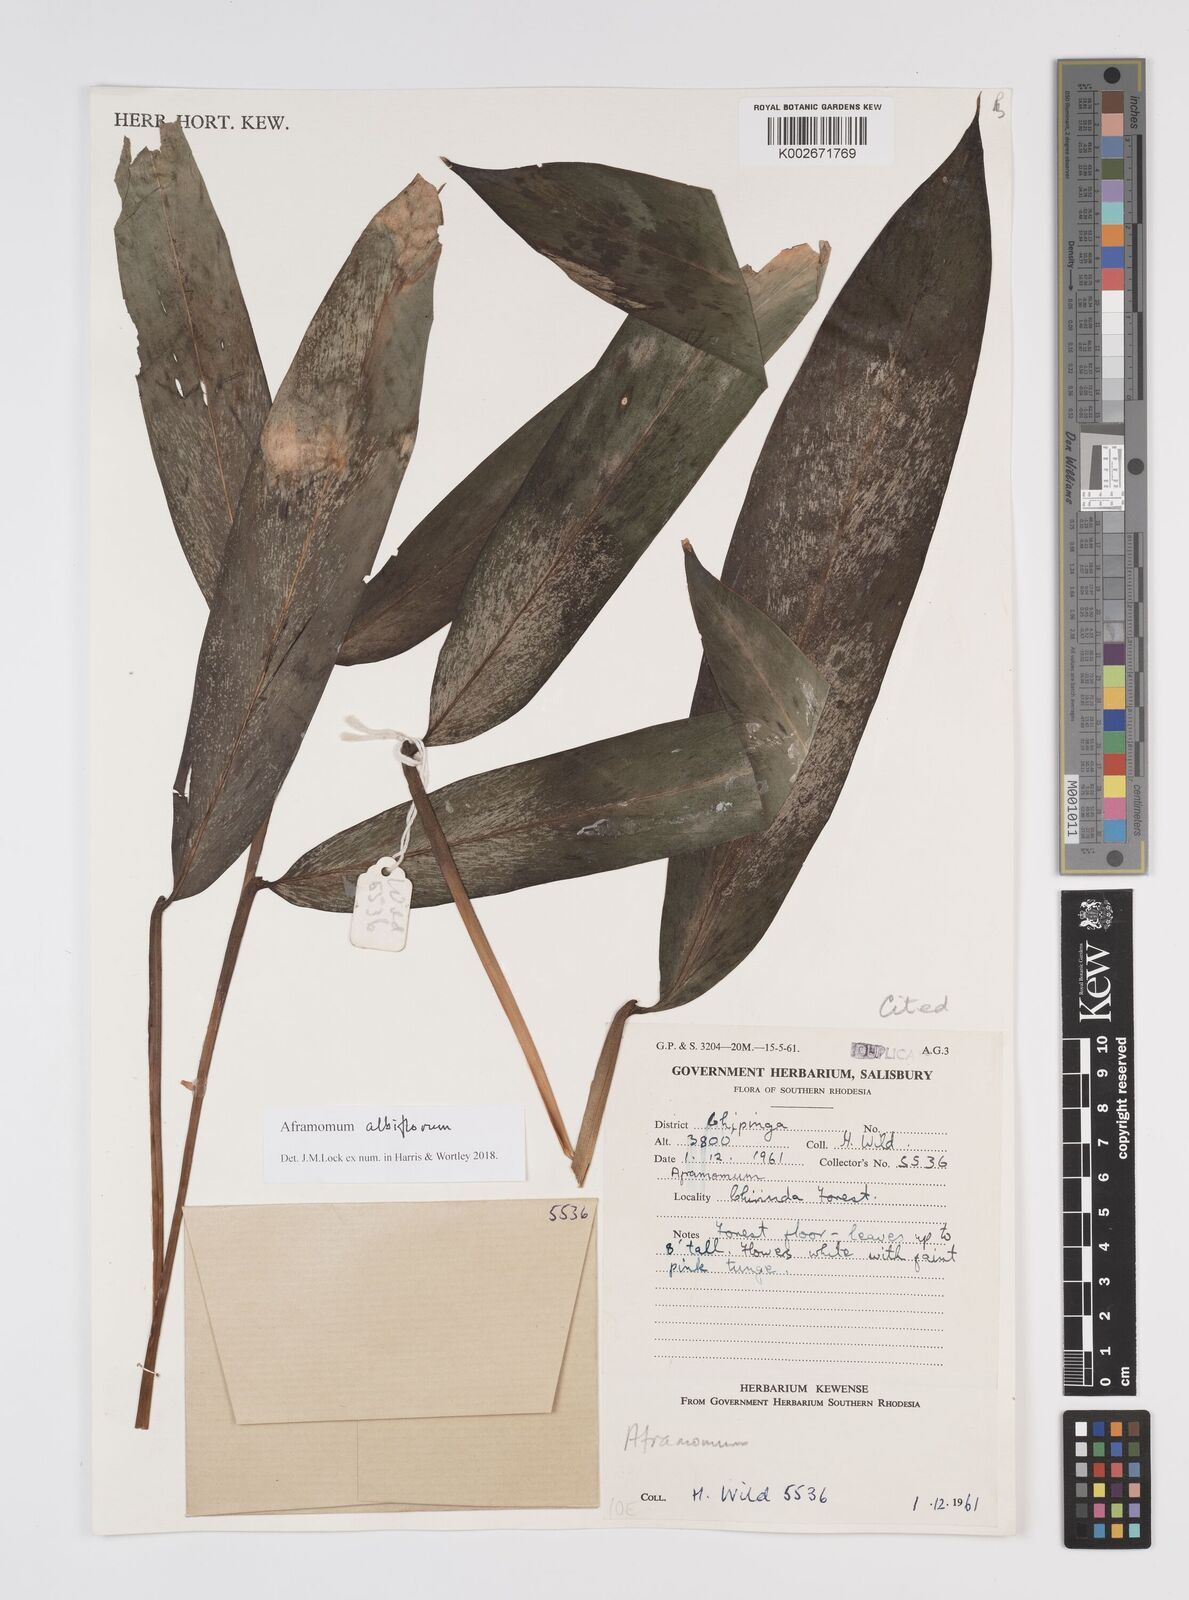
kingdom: Plantae
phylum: Tracheophyta
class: Liliopsida
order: Zingiberales
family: Zingiberaceae
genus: Aframomum
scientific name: Aframomum albiflorum
